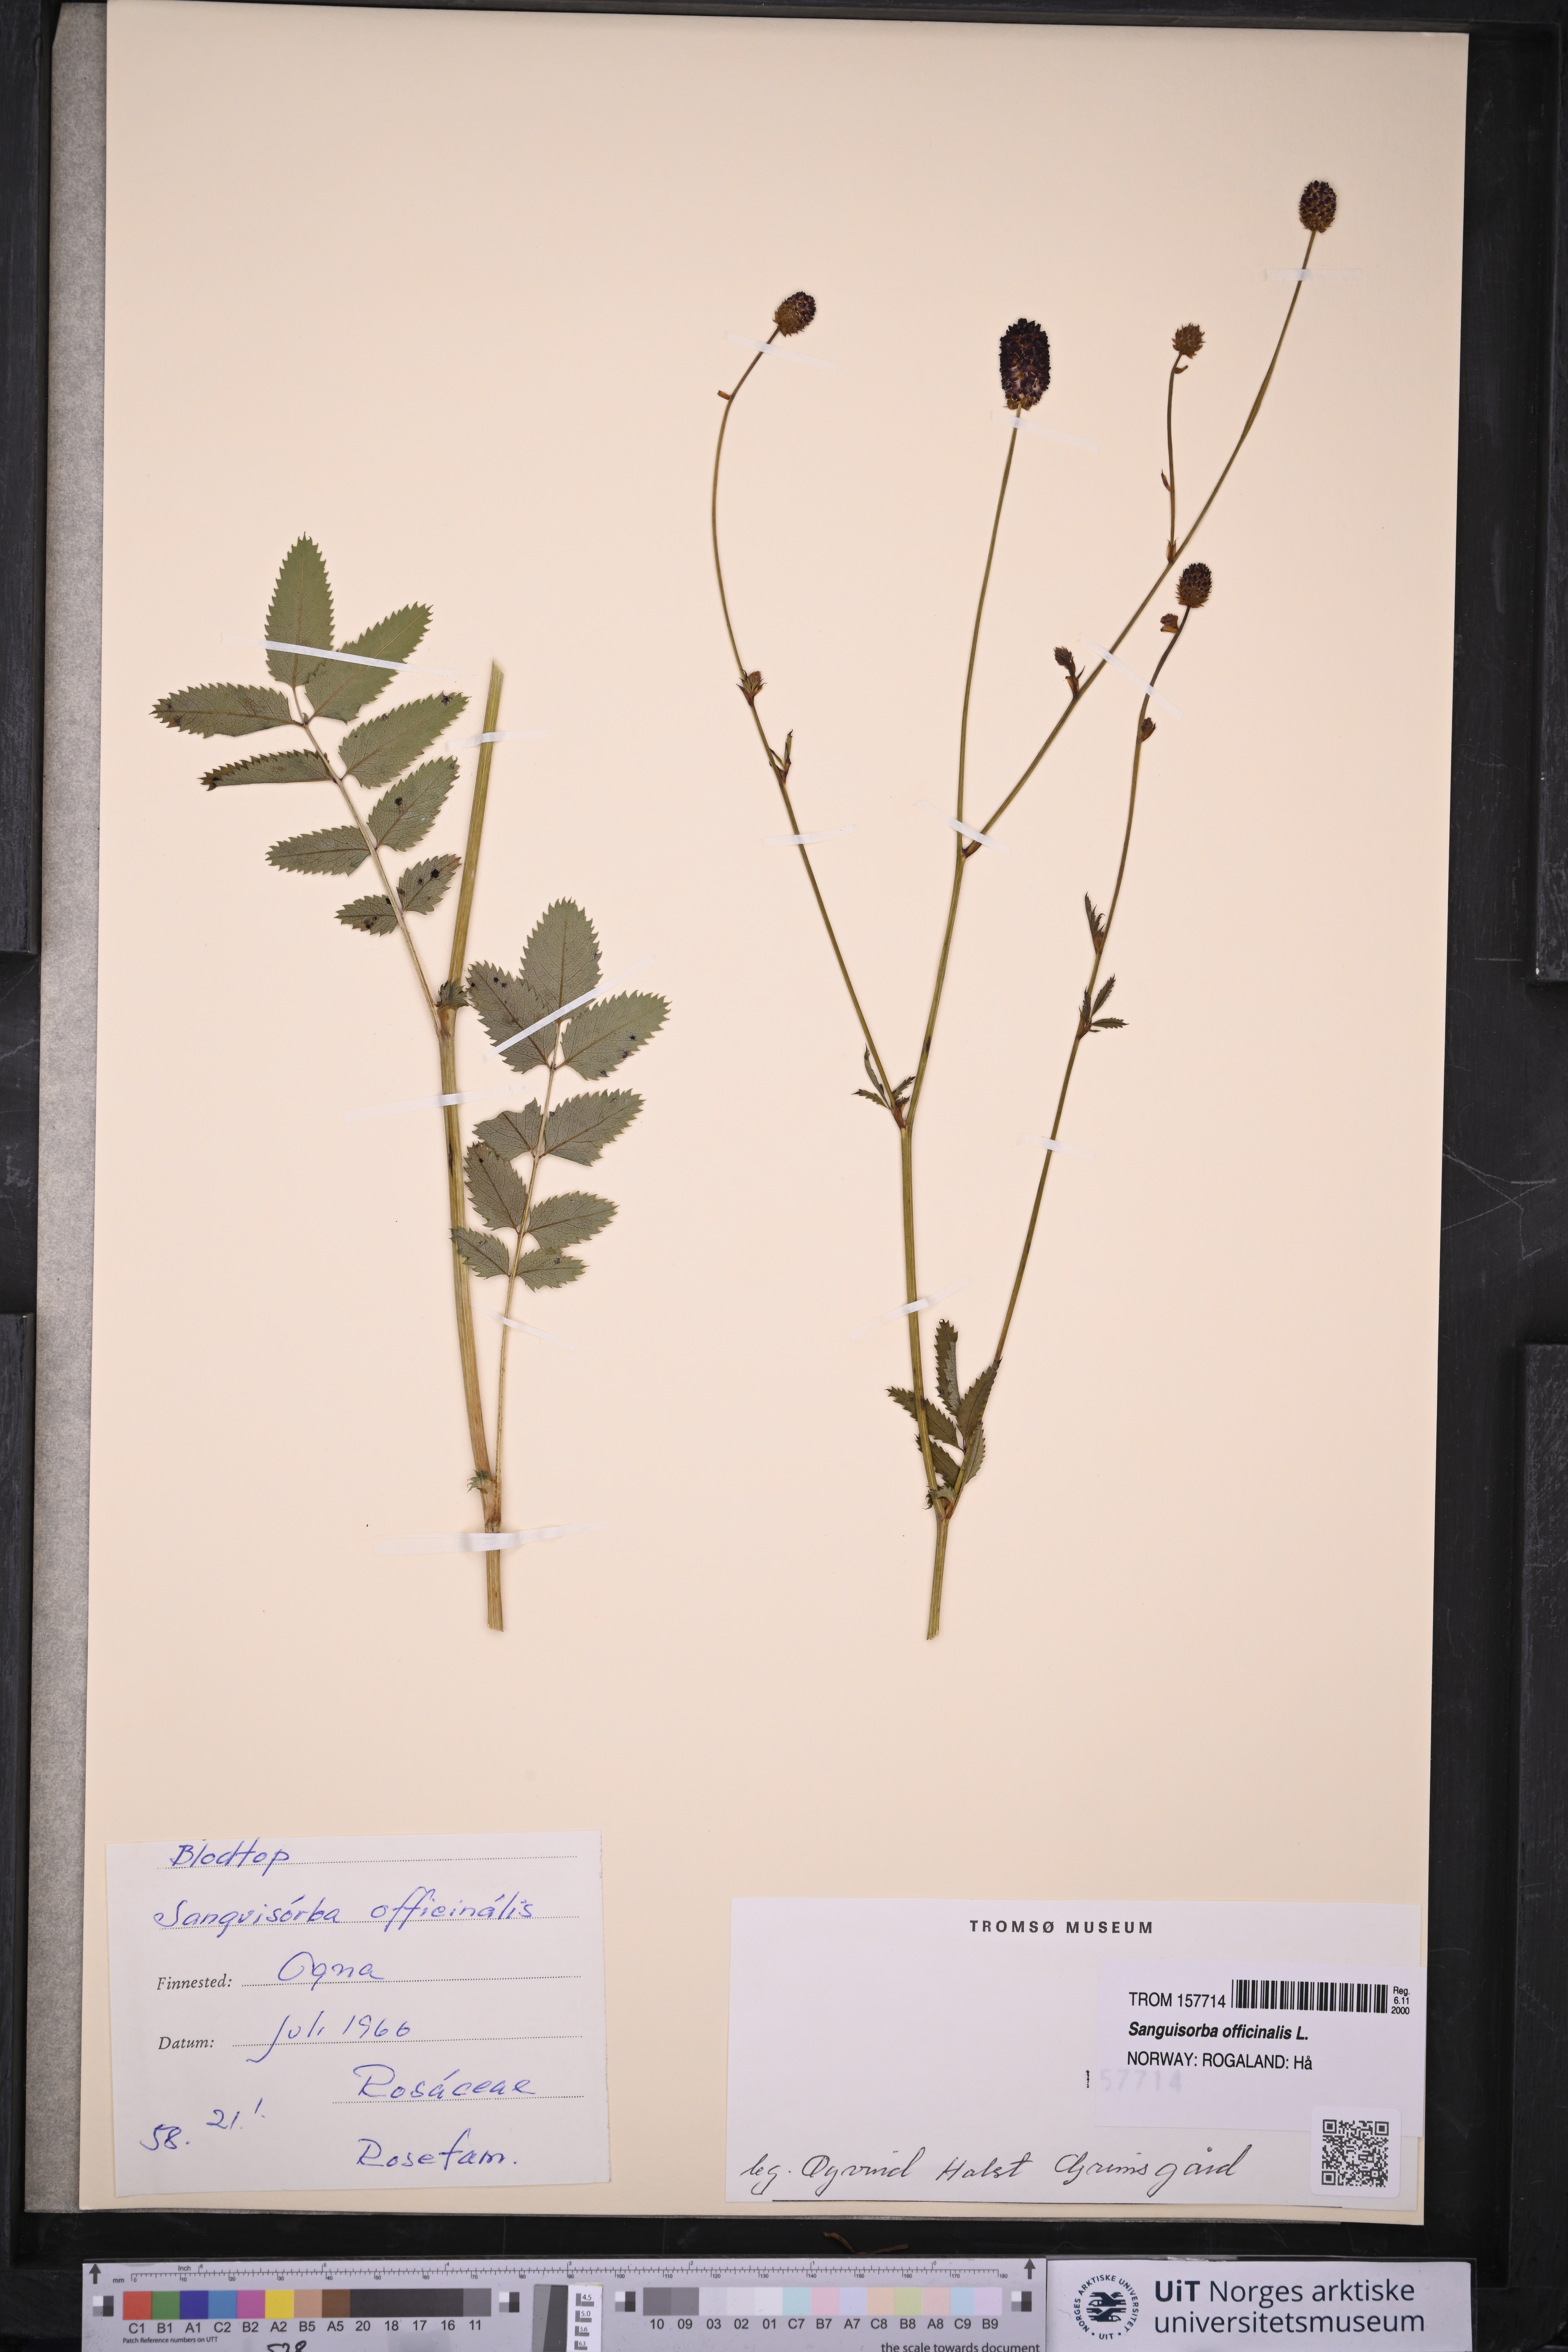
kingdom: Plantae
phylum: Tracheophyta
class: Magnoliopsida
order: Rosales
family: Rosaceae
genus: Sanguisorba
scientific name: Sanguisorba officinalis
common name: Great burnet
